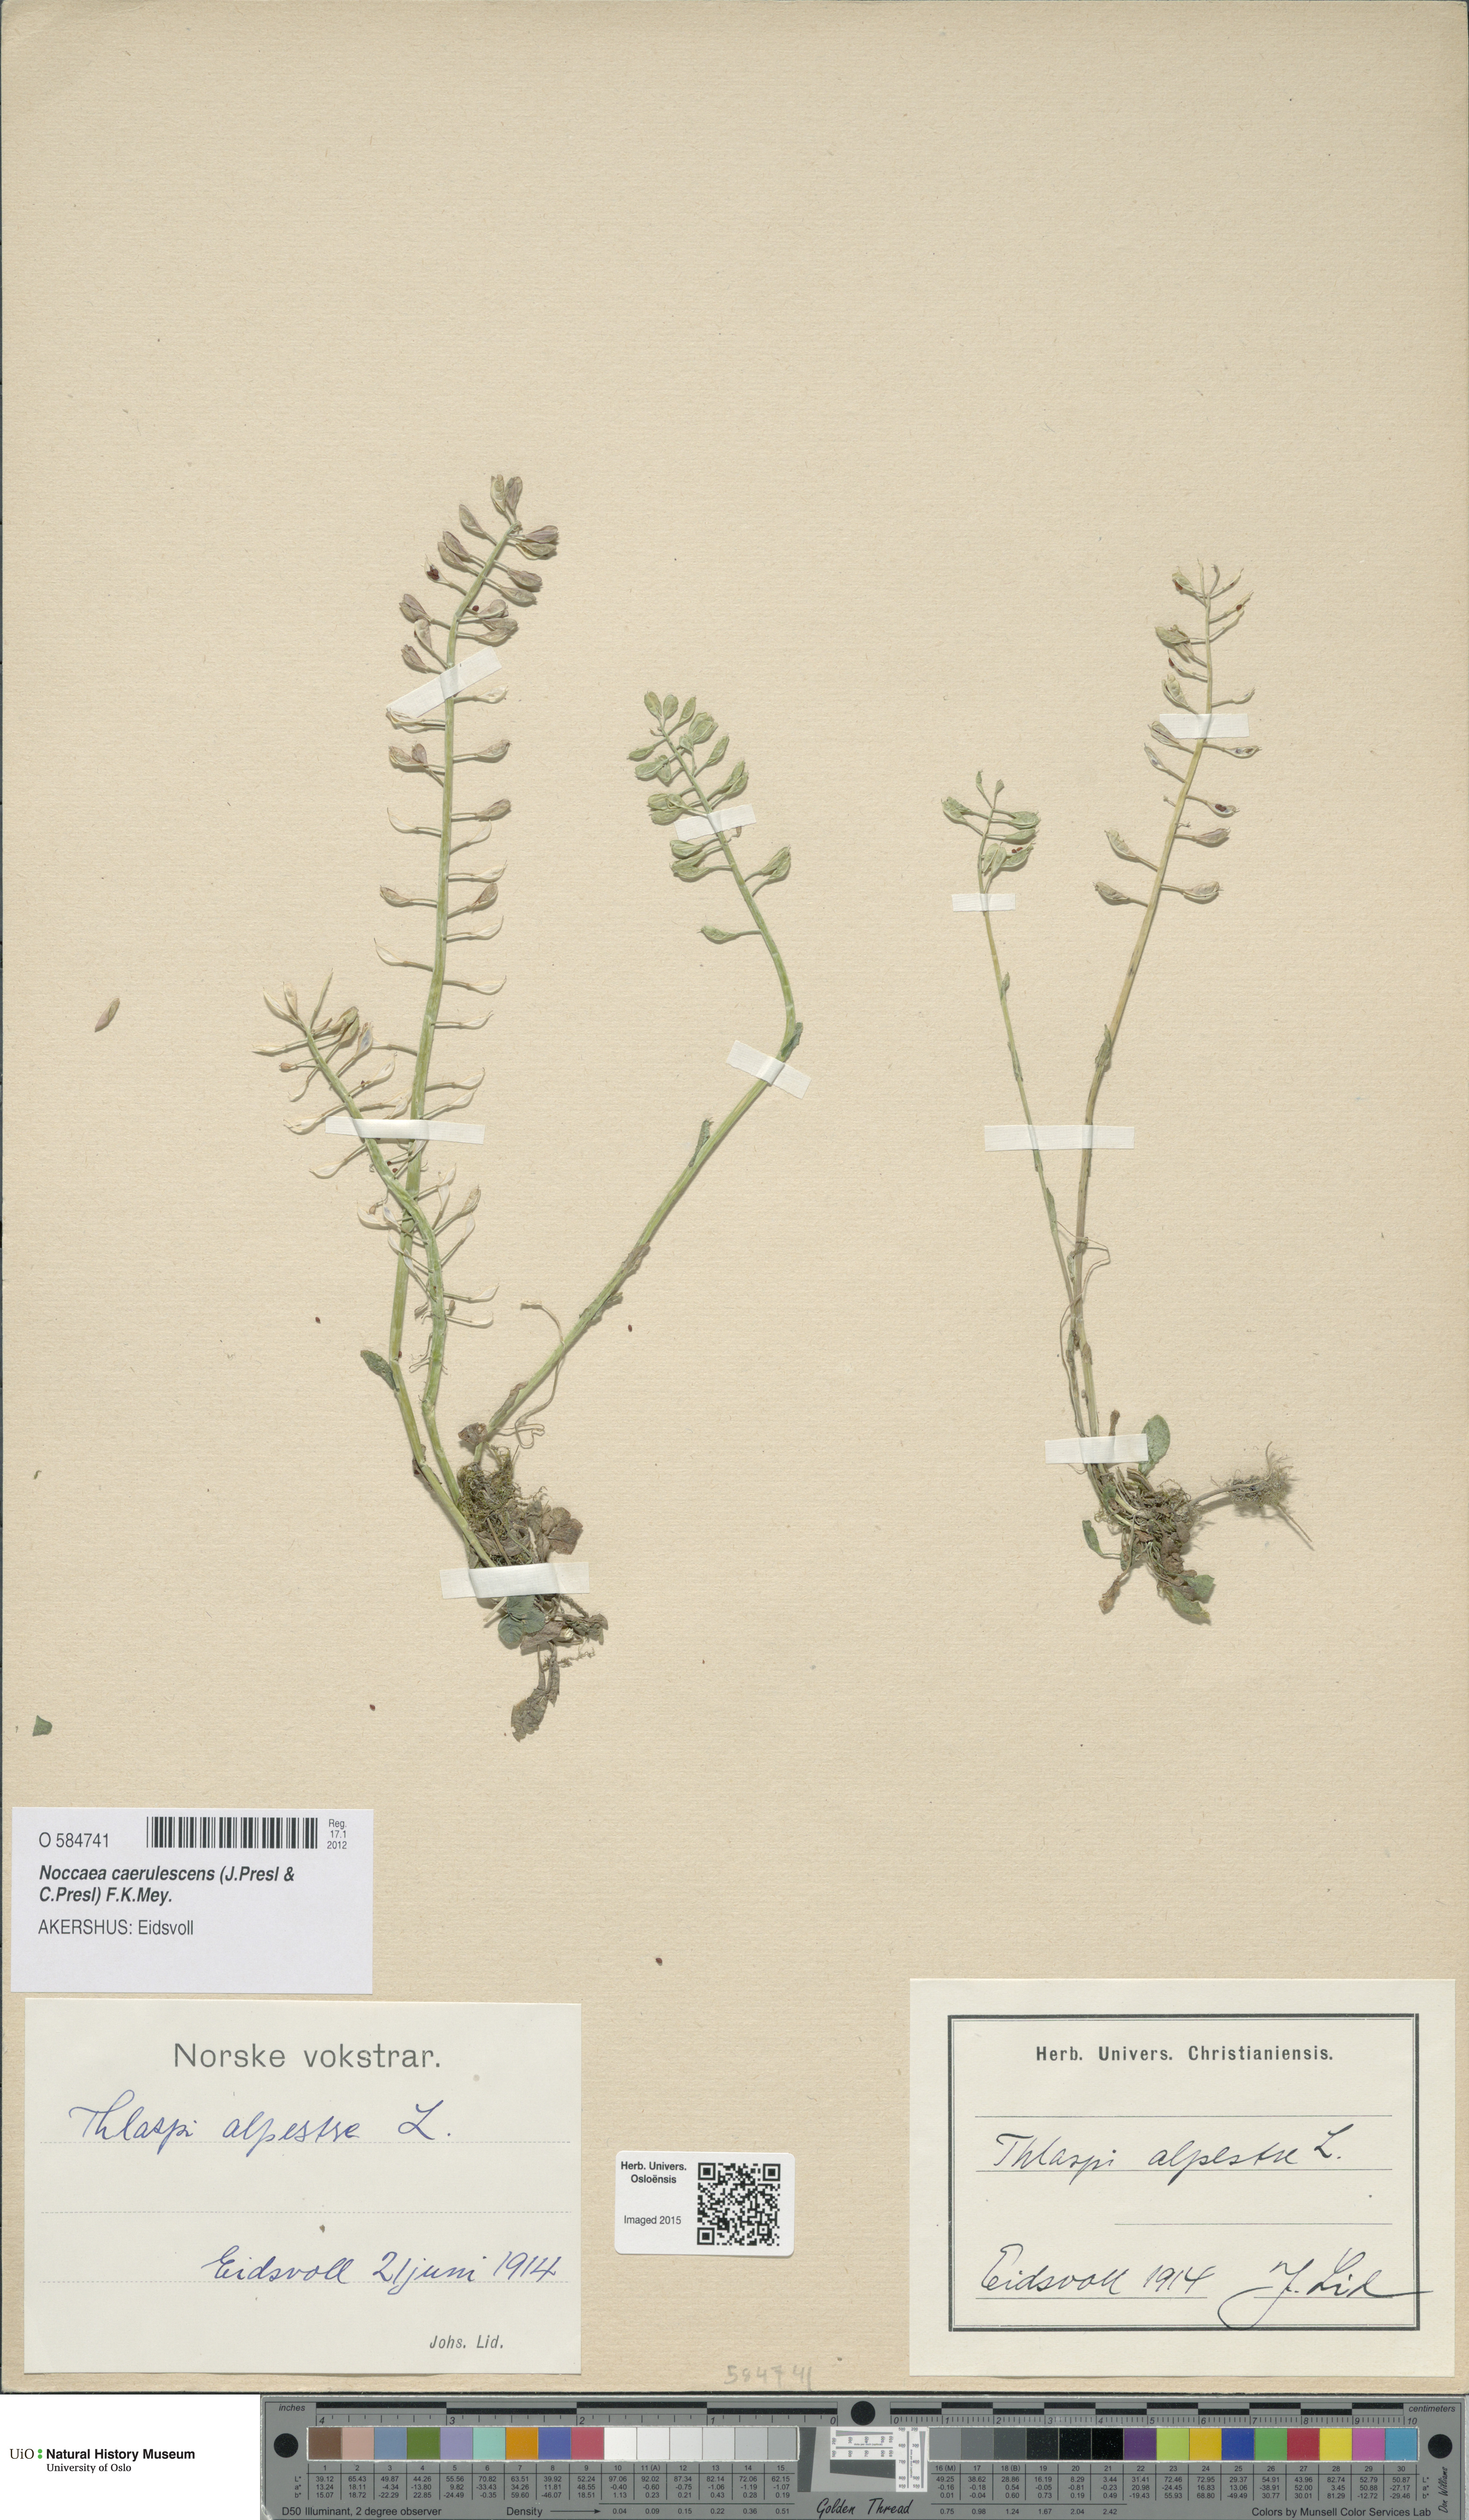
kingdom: Plantae
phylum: Tracheophyta
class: Magnoliopsida
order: Brassicales
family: Brassicaceae
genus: Noccaea
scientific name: Noccaea caerulescens
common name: Alpine pennycress
